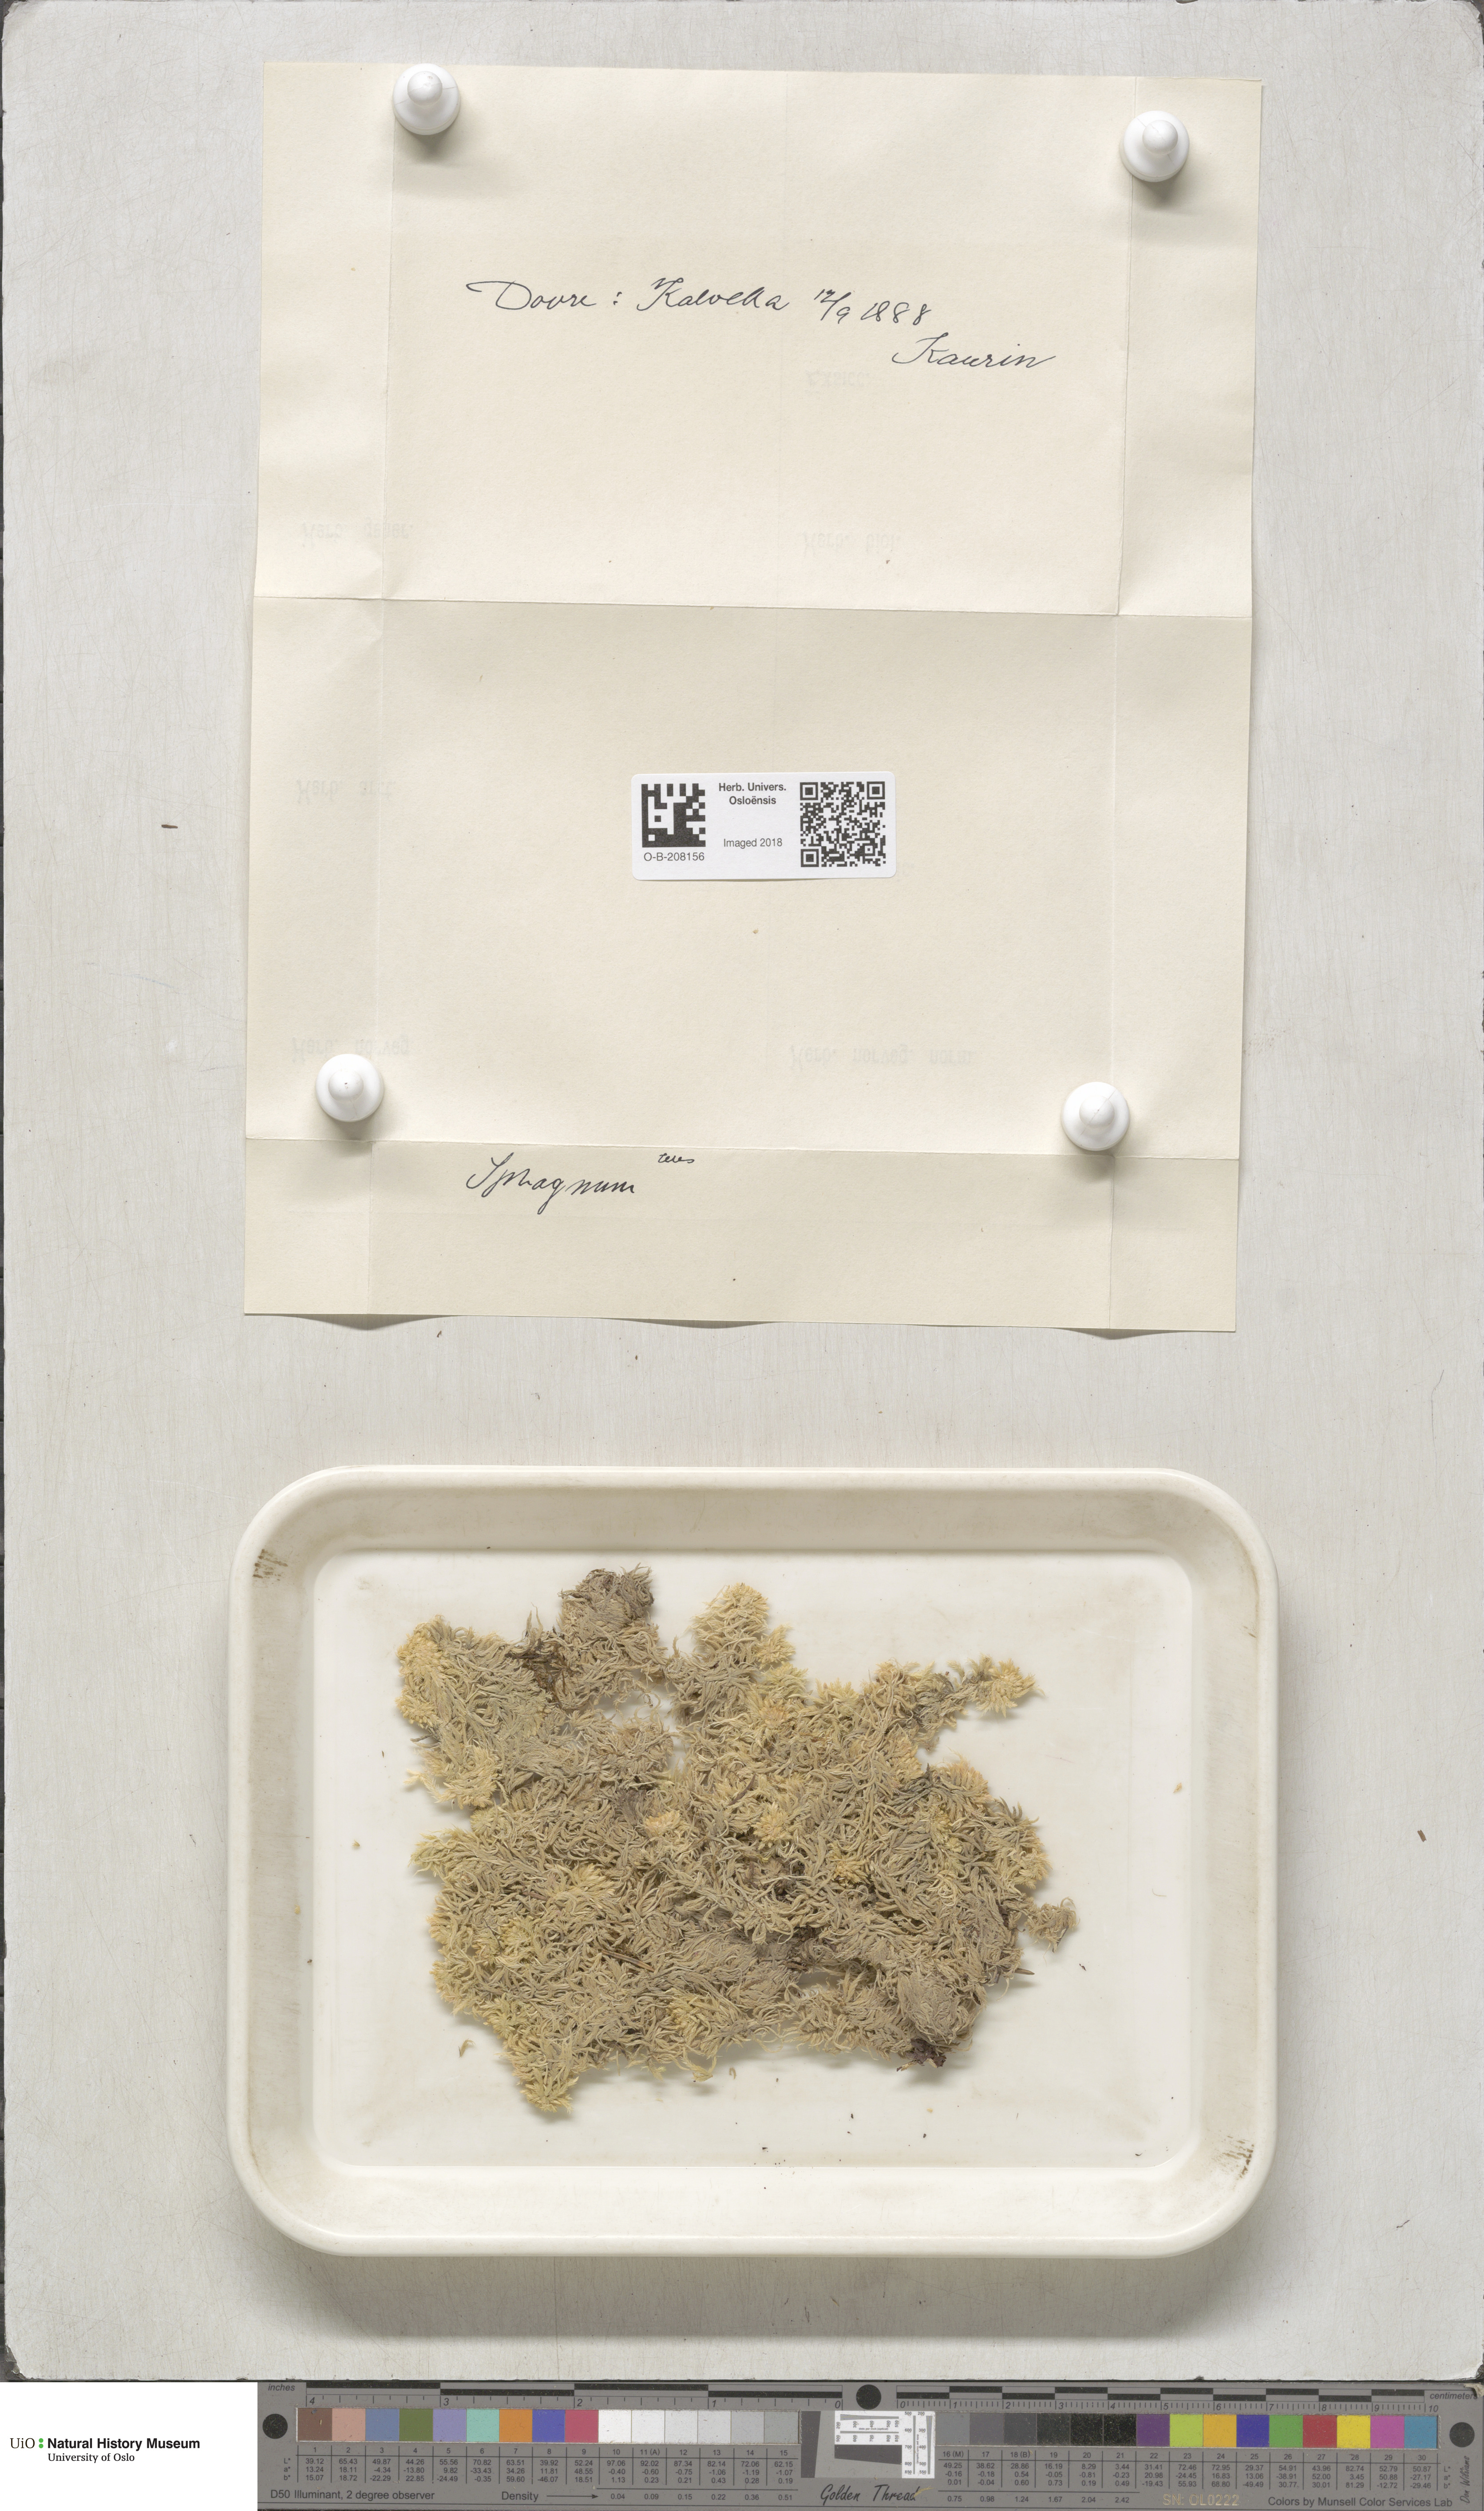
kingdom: Plantae
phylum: Bryophyta
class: Sphagnopsida
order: Sphagnales
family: Sphagnaceae
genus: Sphagnum
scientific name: Sphagnum teres
